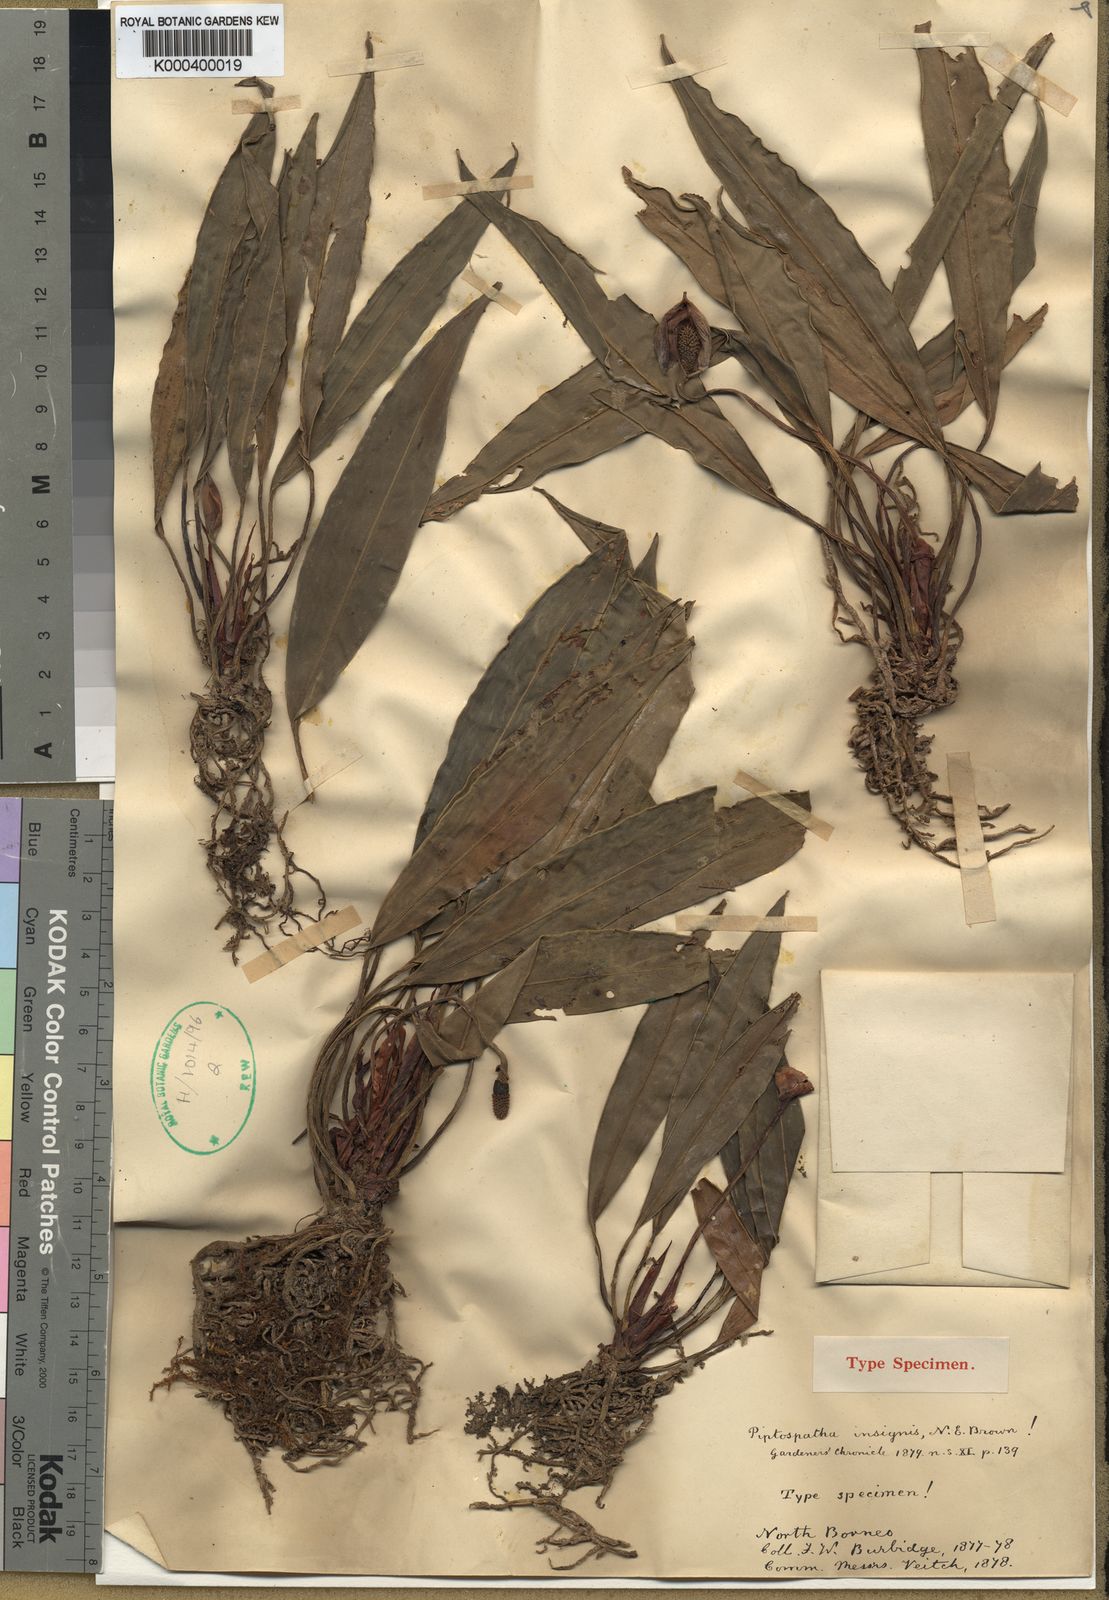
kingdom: Plantae
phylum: Tracheophyta
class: Liliopsida
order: Alismatales
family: Araceae
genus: Piptospatha
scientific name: Piptospatha insignis
